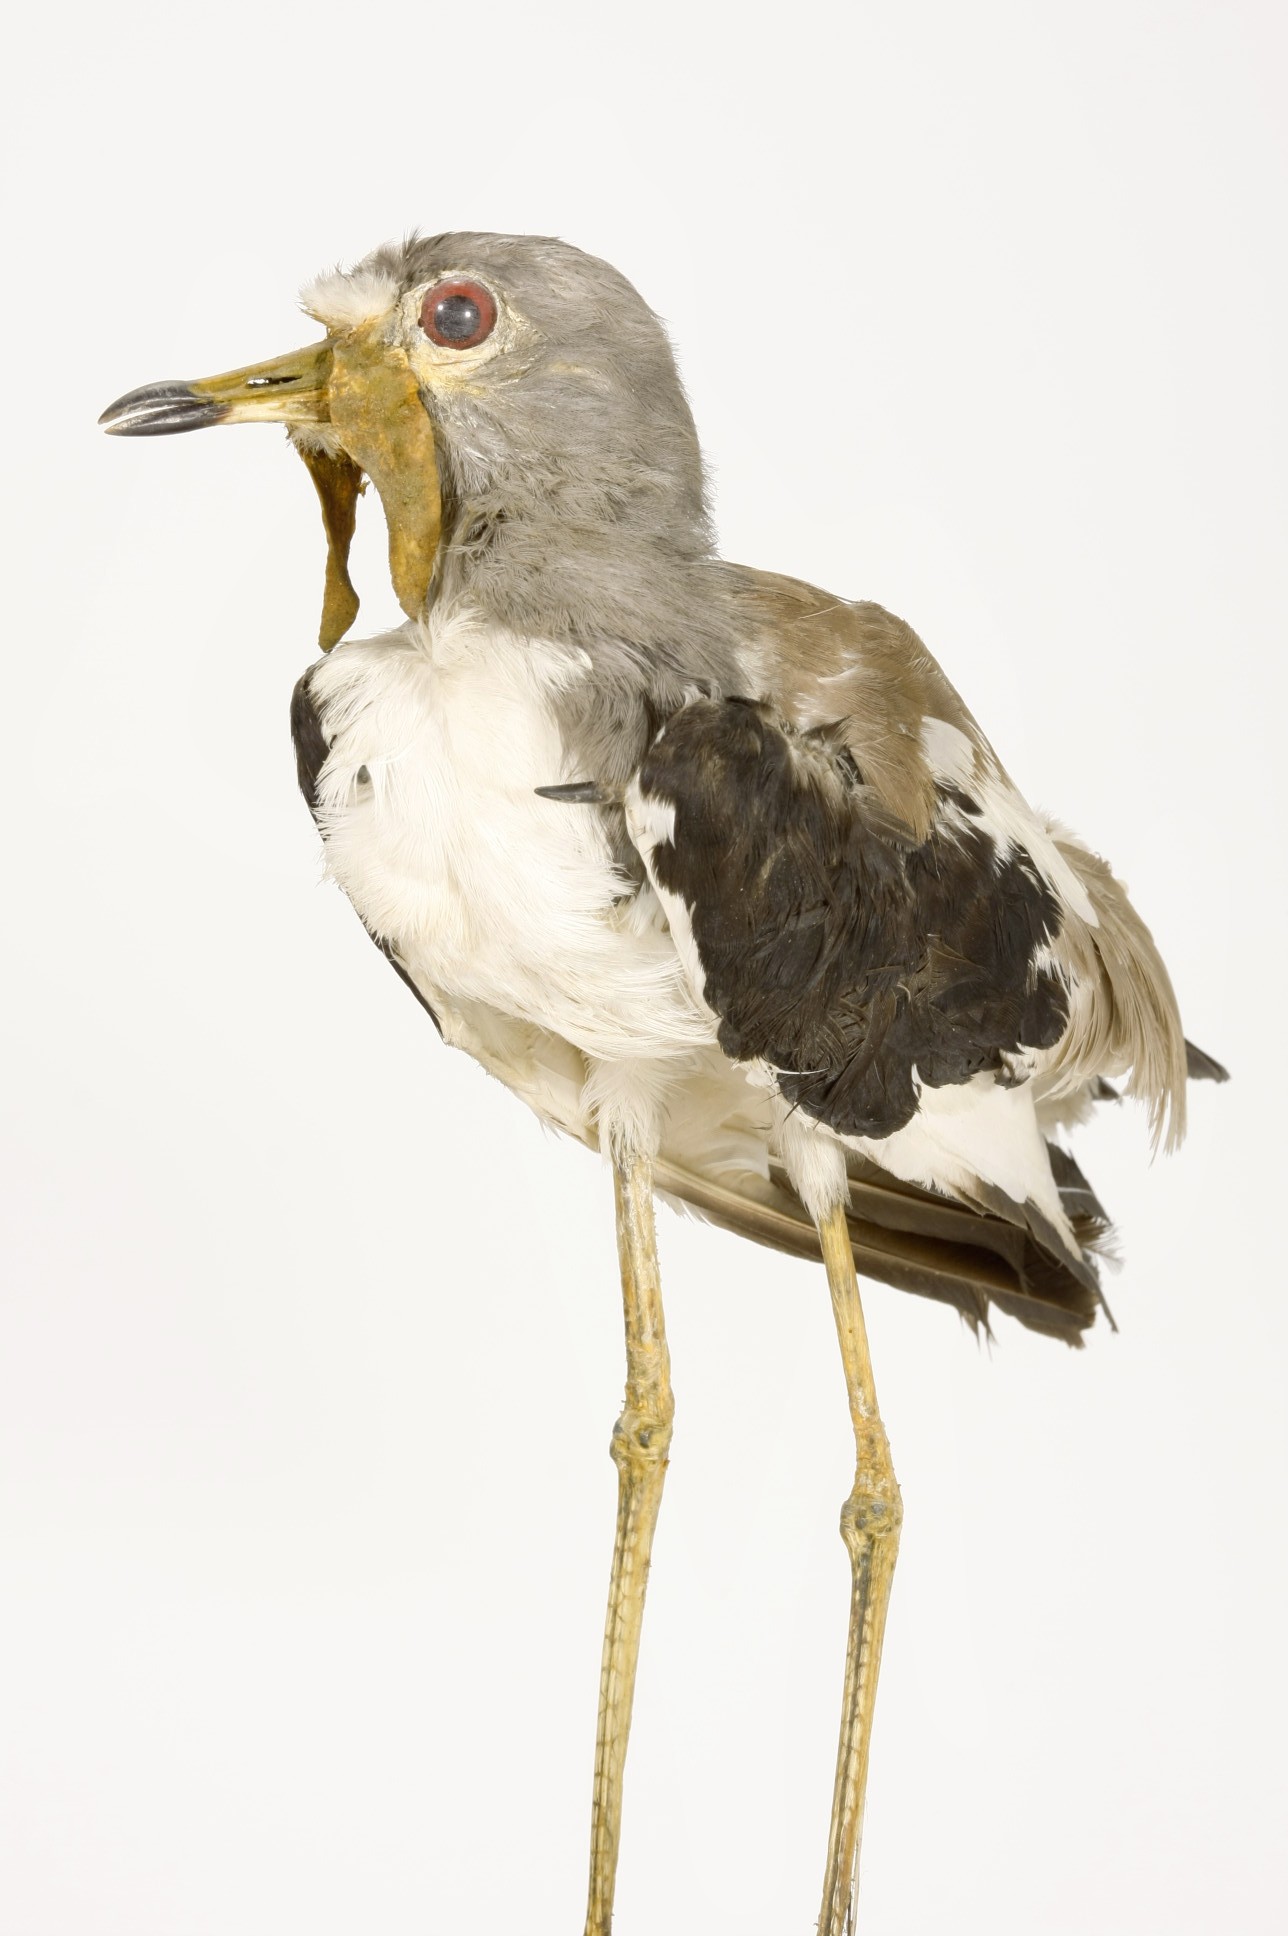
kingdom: Animalia
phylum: Chordata
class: Aves
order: Charadriiformes
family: Charadriidae
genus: Vanellus
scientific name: Vanellus albiceps
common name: White-crowned lapwing
